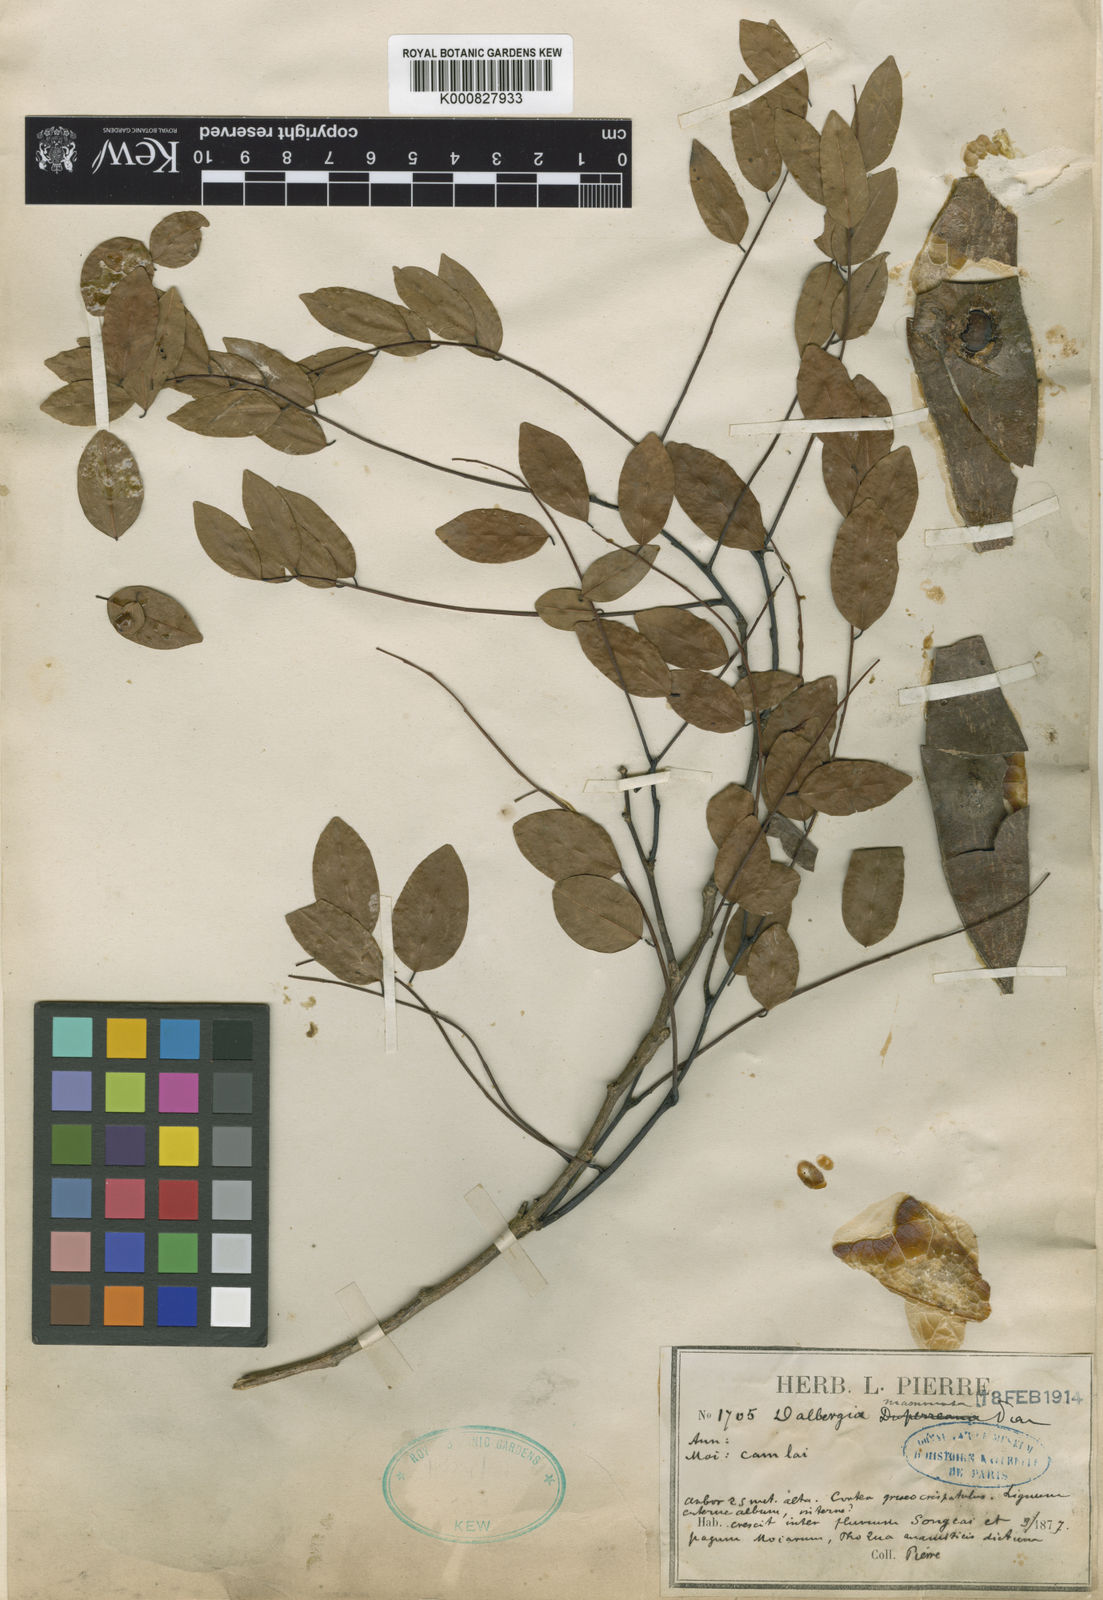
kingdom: Plantae
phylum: Tracheophyta
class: Magnoliopsida
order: Fabales
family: Fabaceae
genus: Dalbergia
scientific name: Dalbergia oliveri
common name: Burmese rosewood
